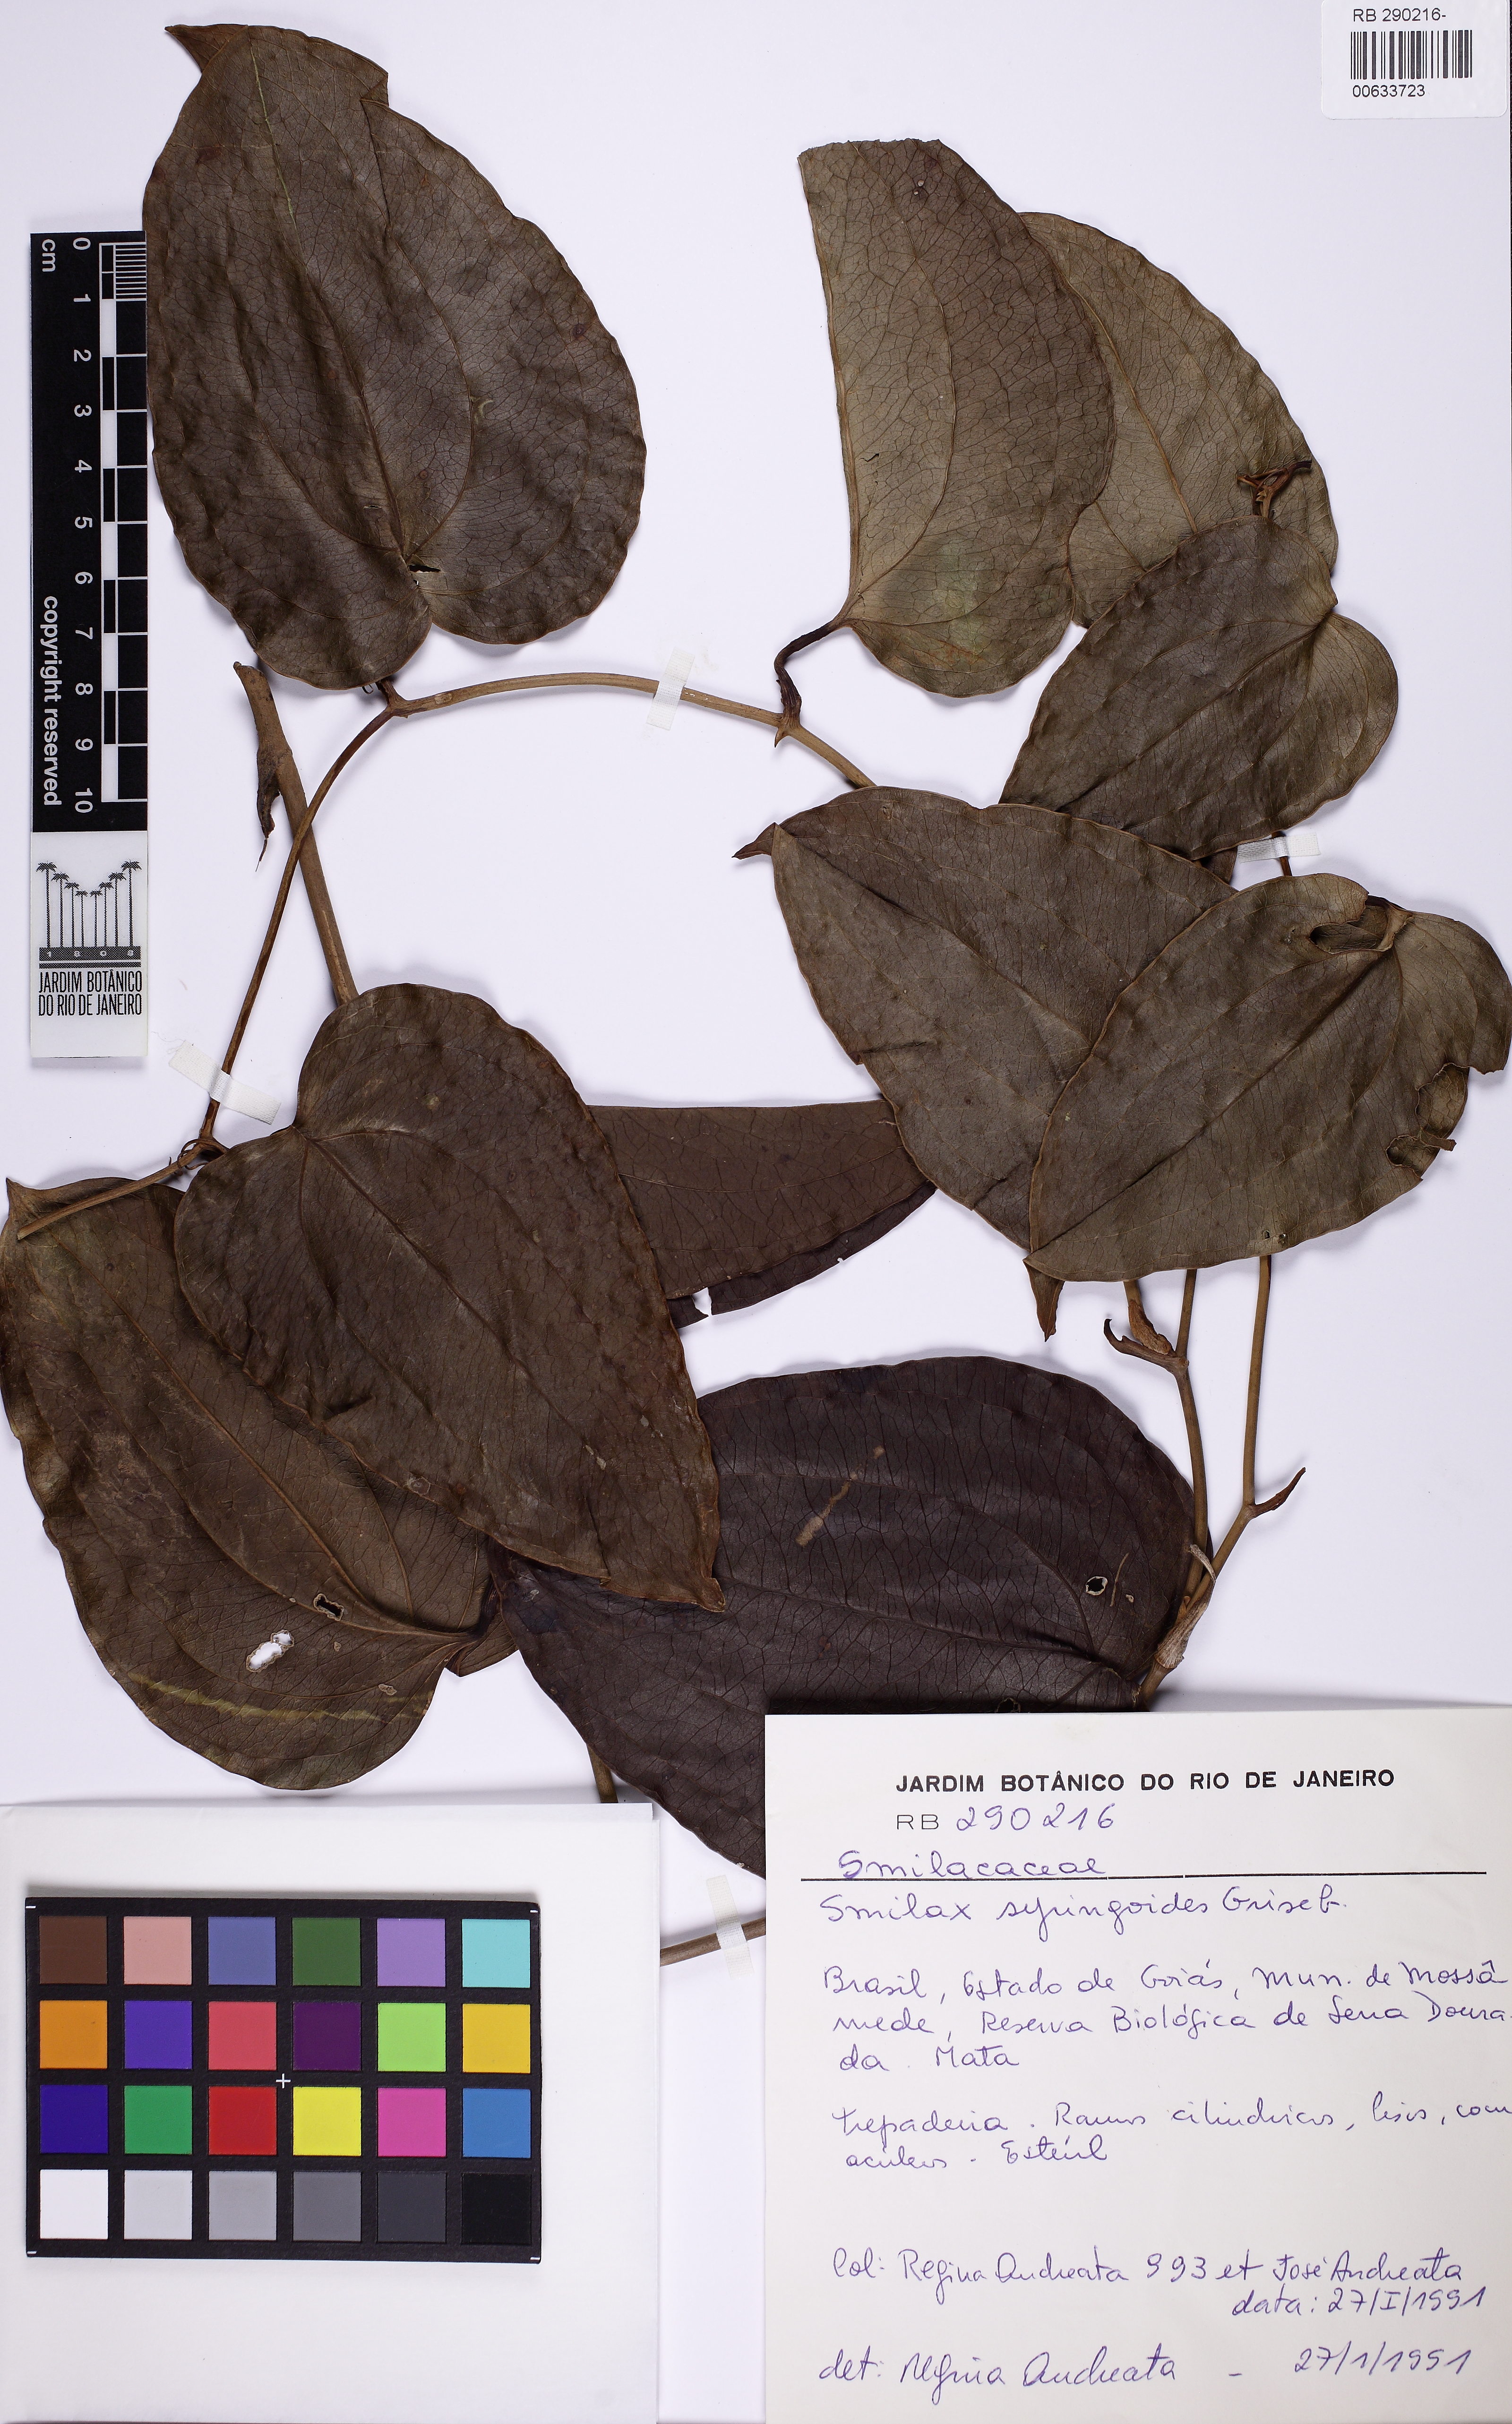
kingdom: Plantae
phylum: Tracheophyta
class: Liliopsida
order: Liliales
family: Smilacaceae
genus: Smilax
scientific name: Smilax fluminensis
